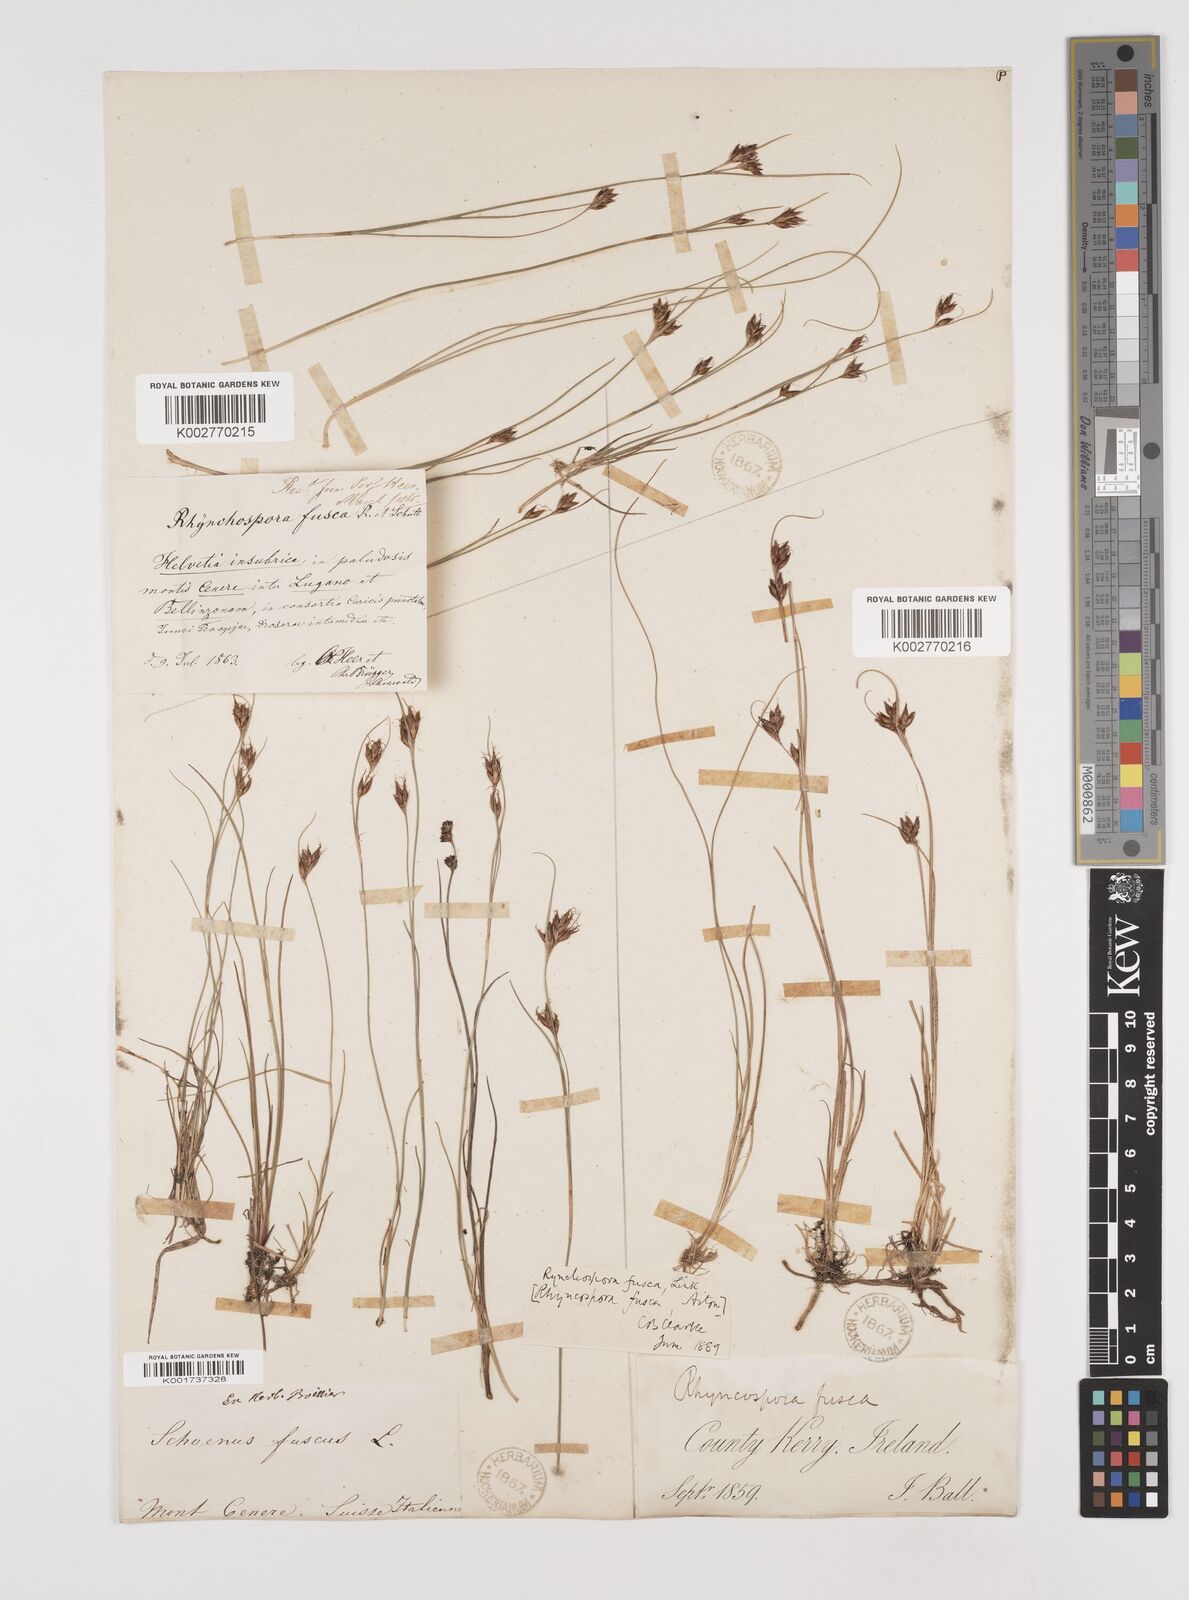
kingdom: Plantae
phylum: Tracheophyta
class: Liliopsida
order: Poales
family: Cyperaceae
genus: Rhynchospora
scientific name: Rhynchospora fusca
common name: Brown beak-sedge
